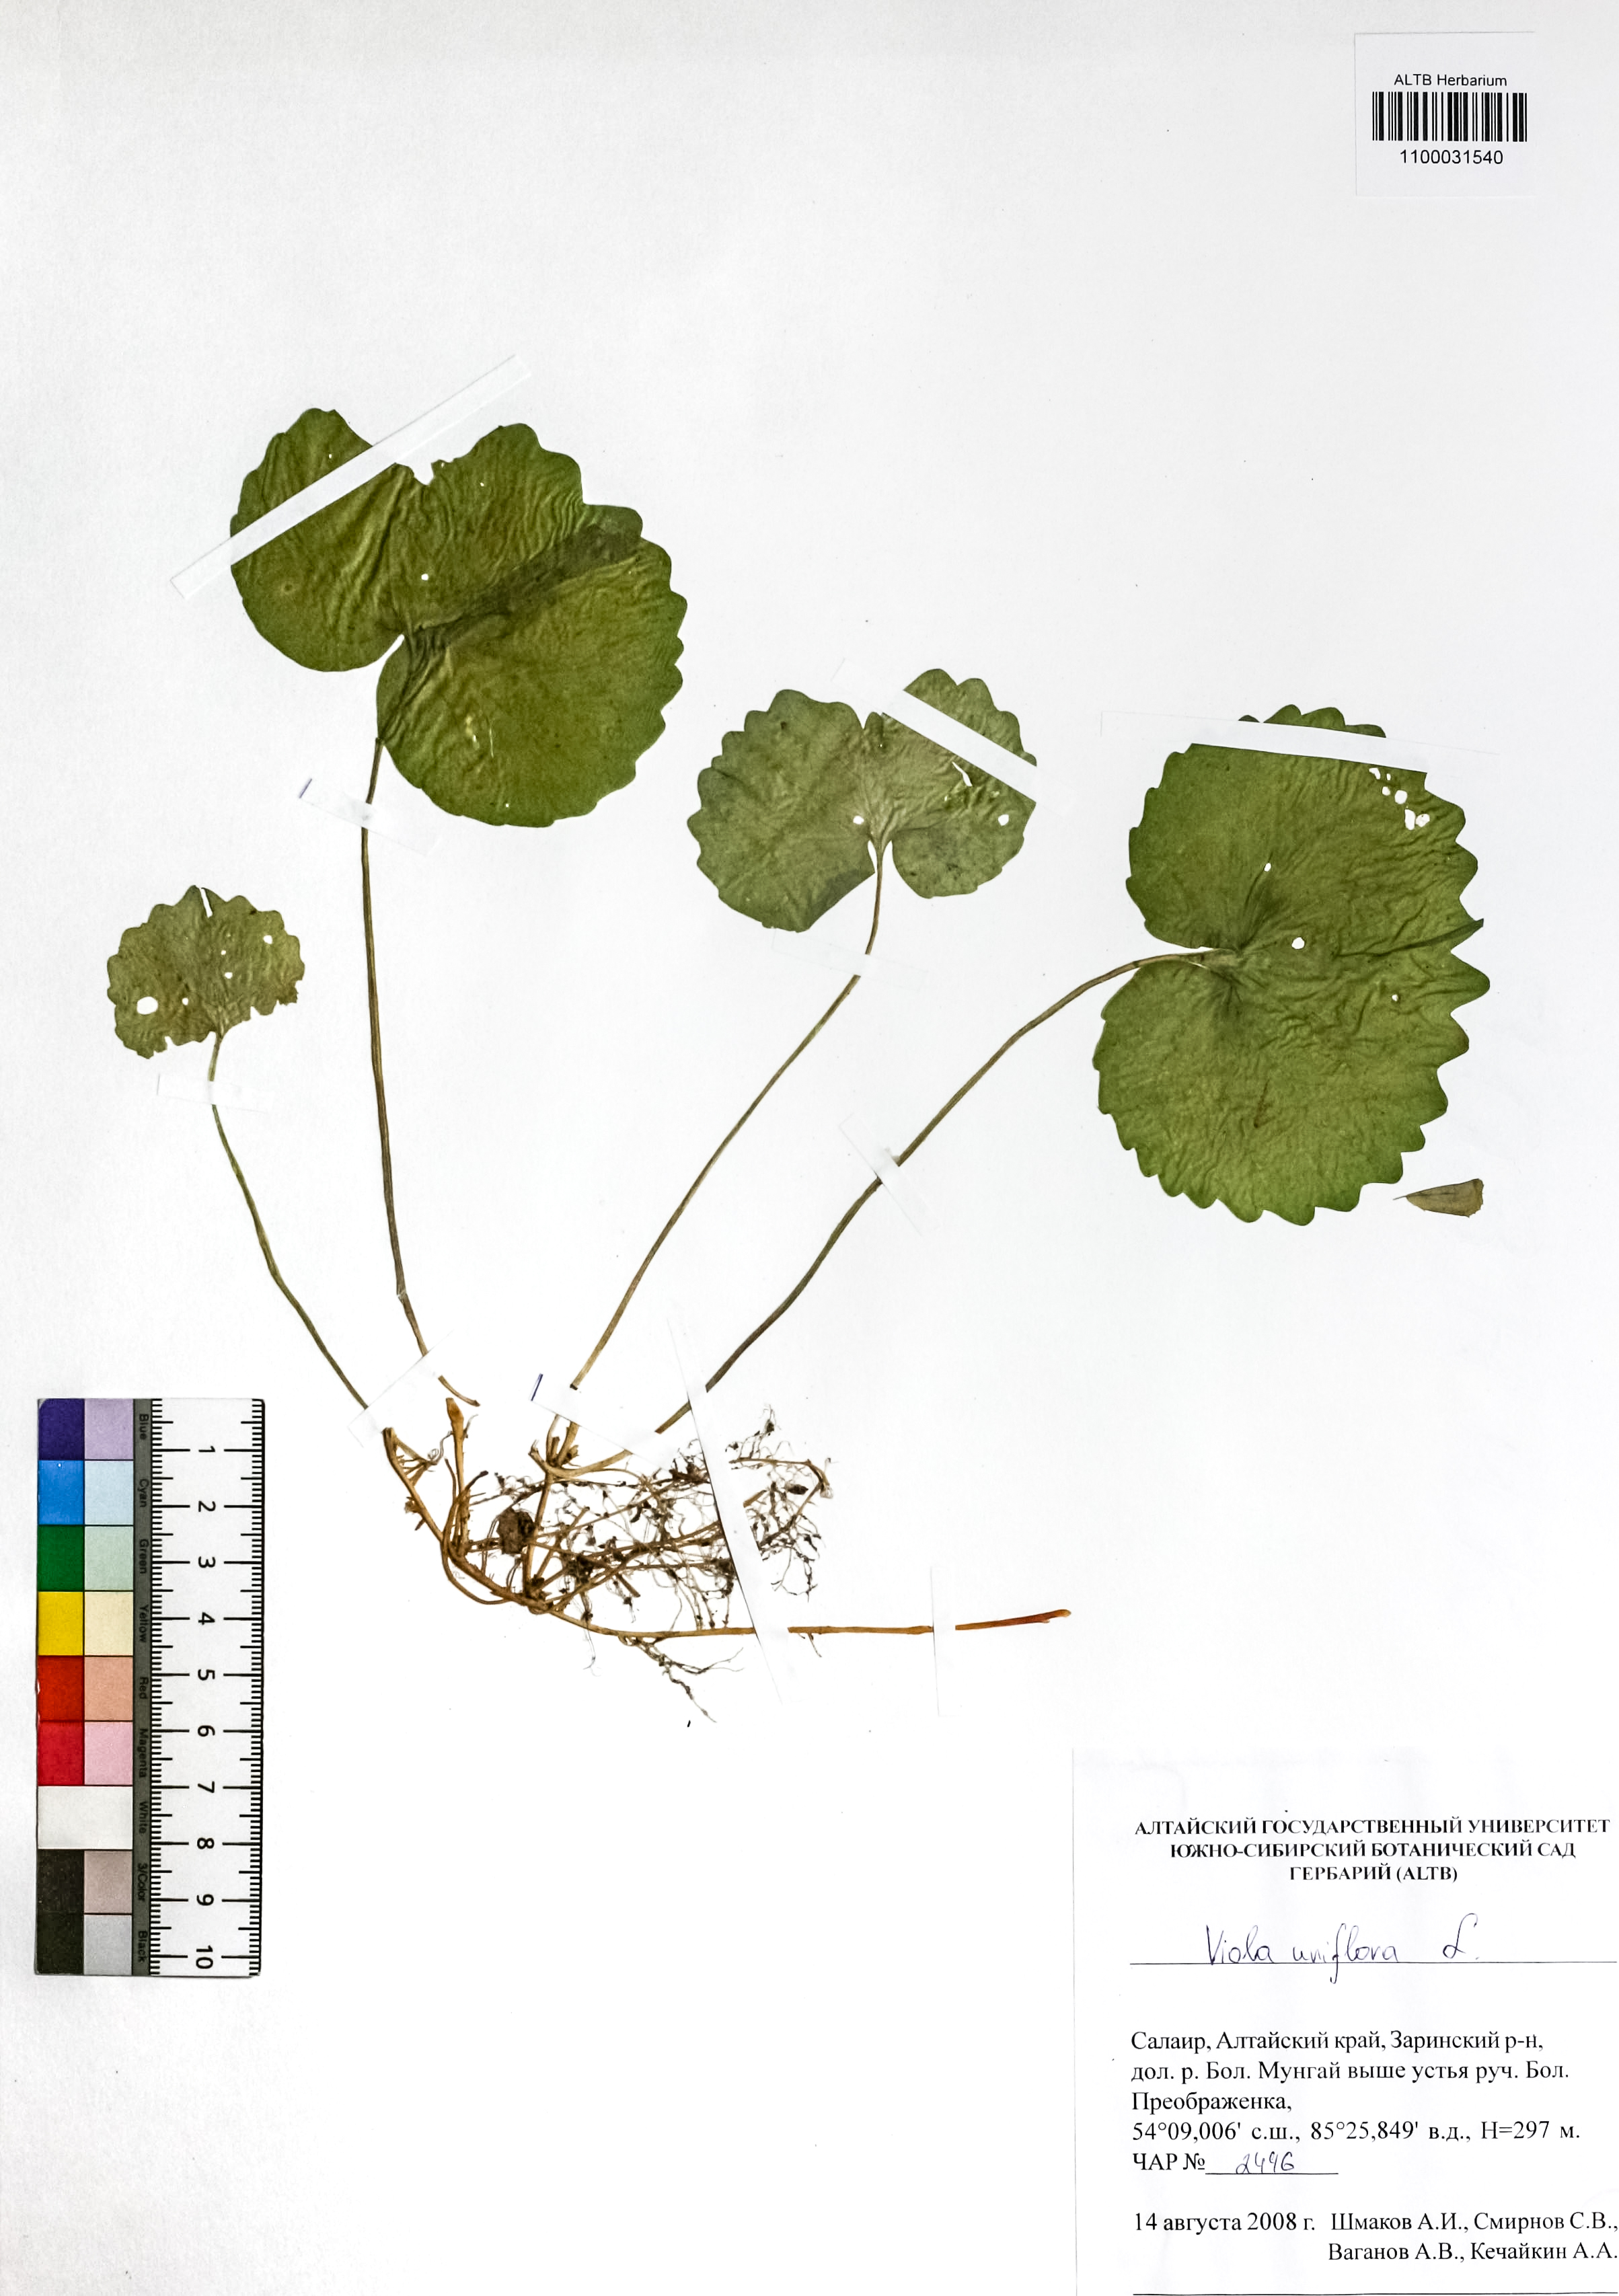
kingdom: Plantae
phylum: Tracheophyta
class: Magnoliopsida
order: Malpighiales
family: Violaceae
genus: Viola
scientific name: Viola uniflora
